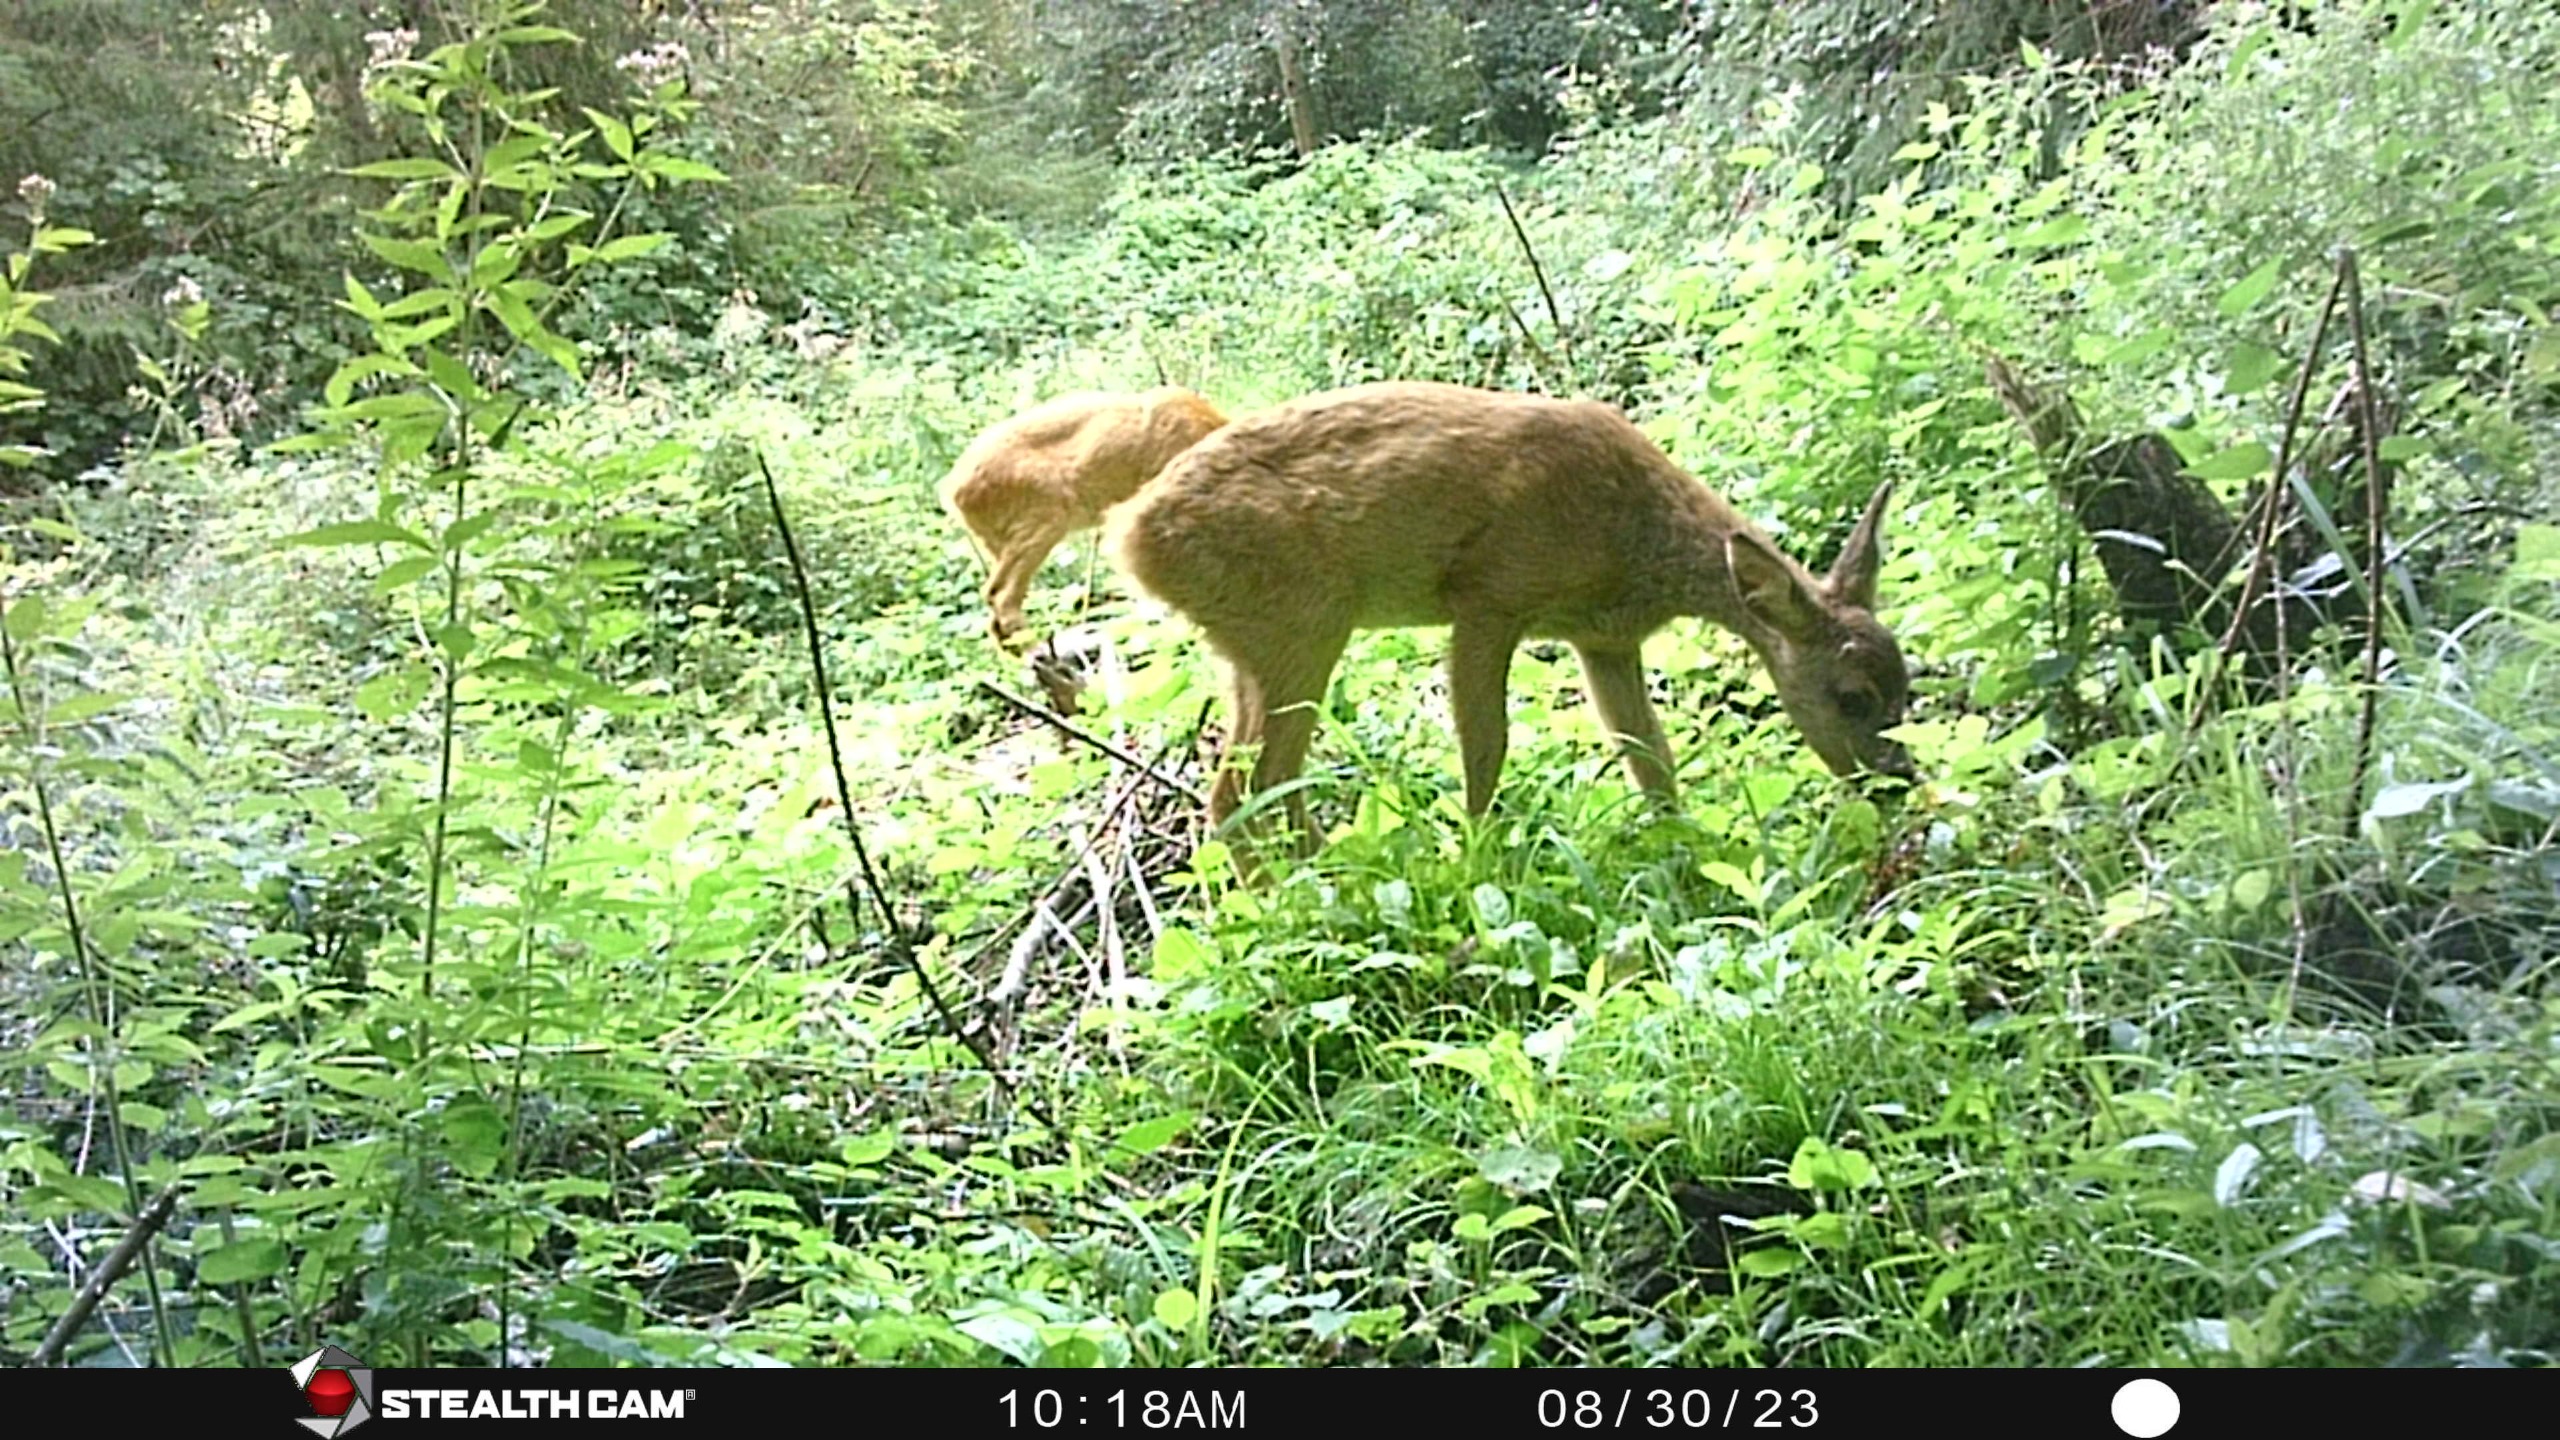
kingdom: Animalia
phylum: Chordata
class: Mammalia
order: Artiodactyla
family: Cervidae
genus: Capreolus
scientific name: Capreolus capreolus
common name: Rådyr
